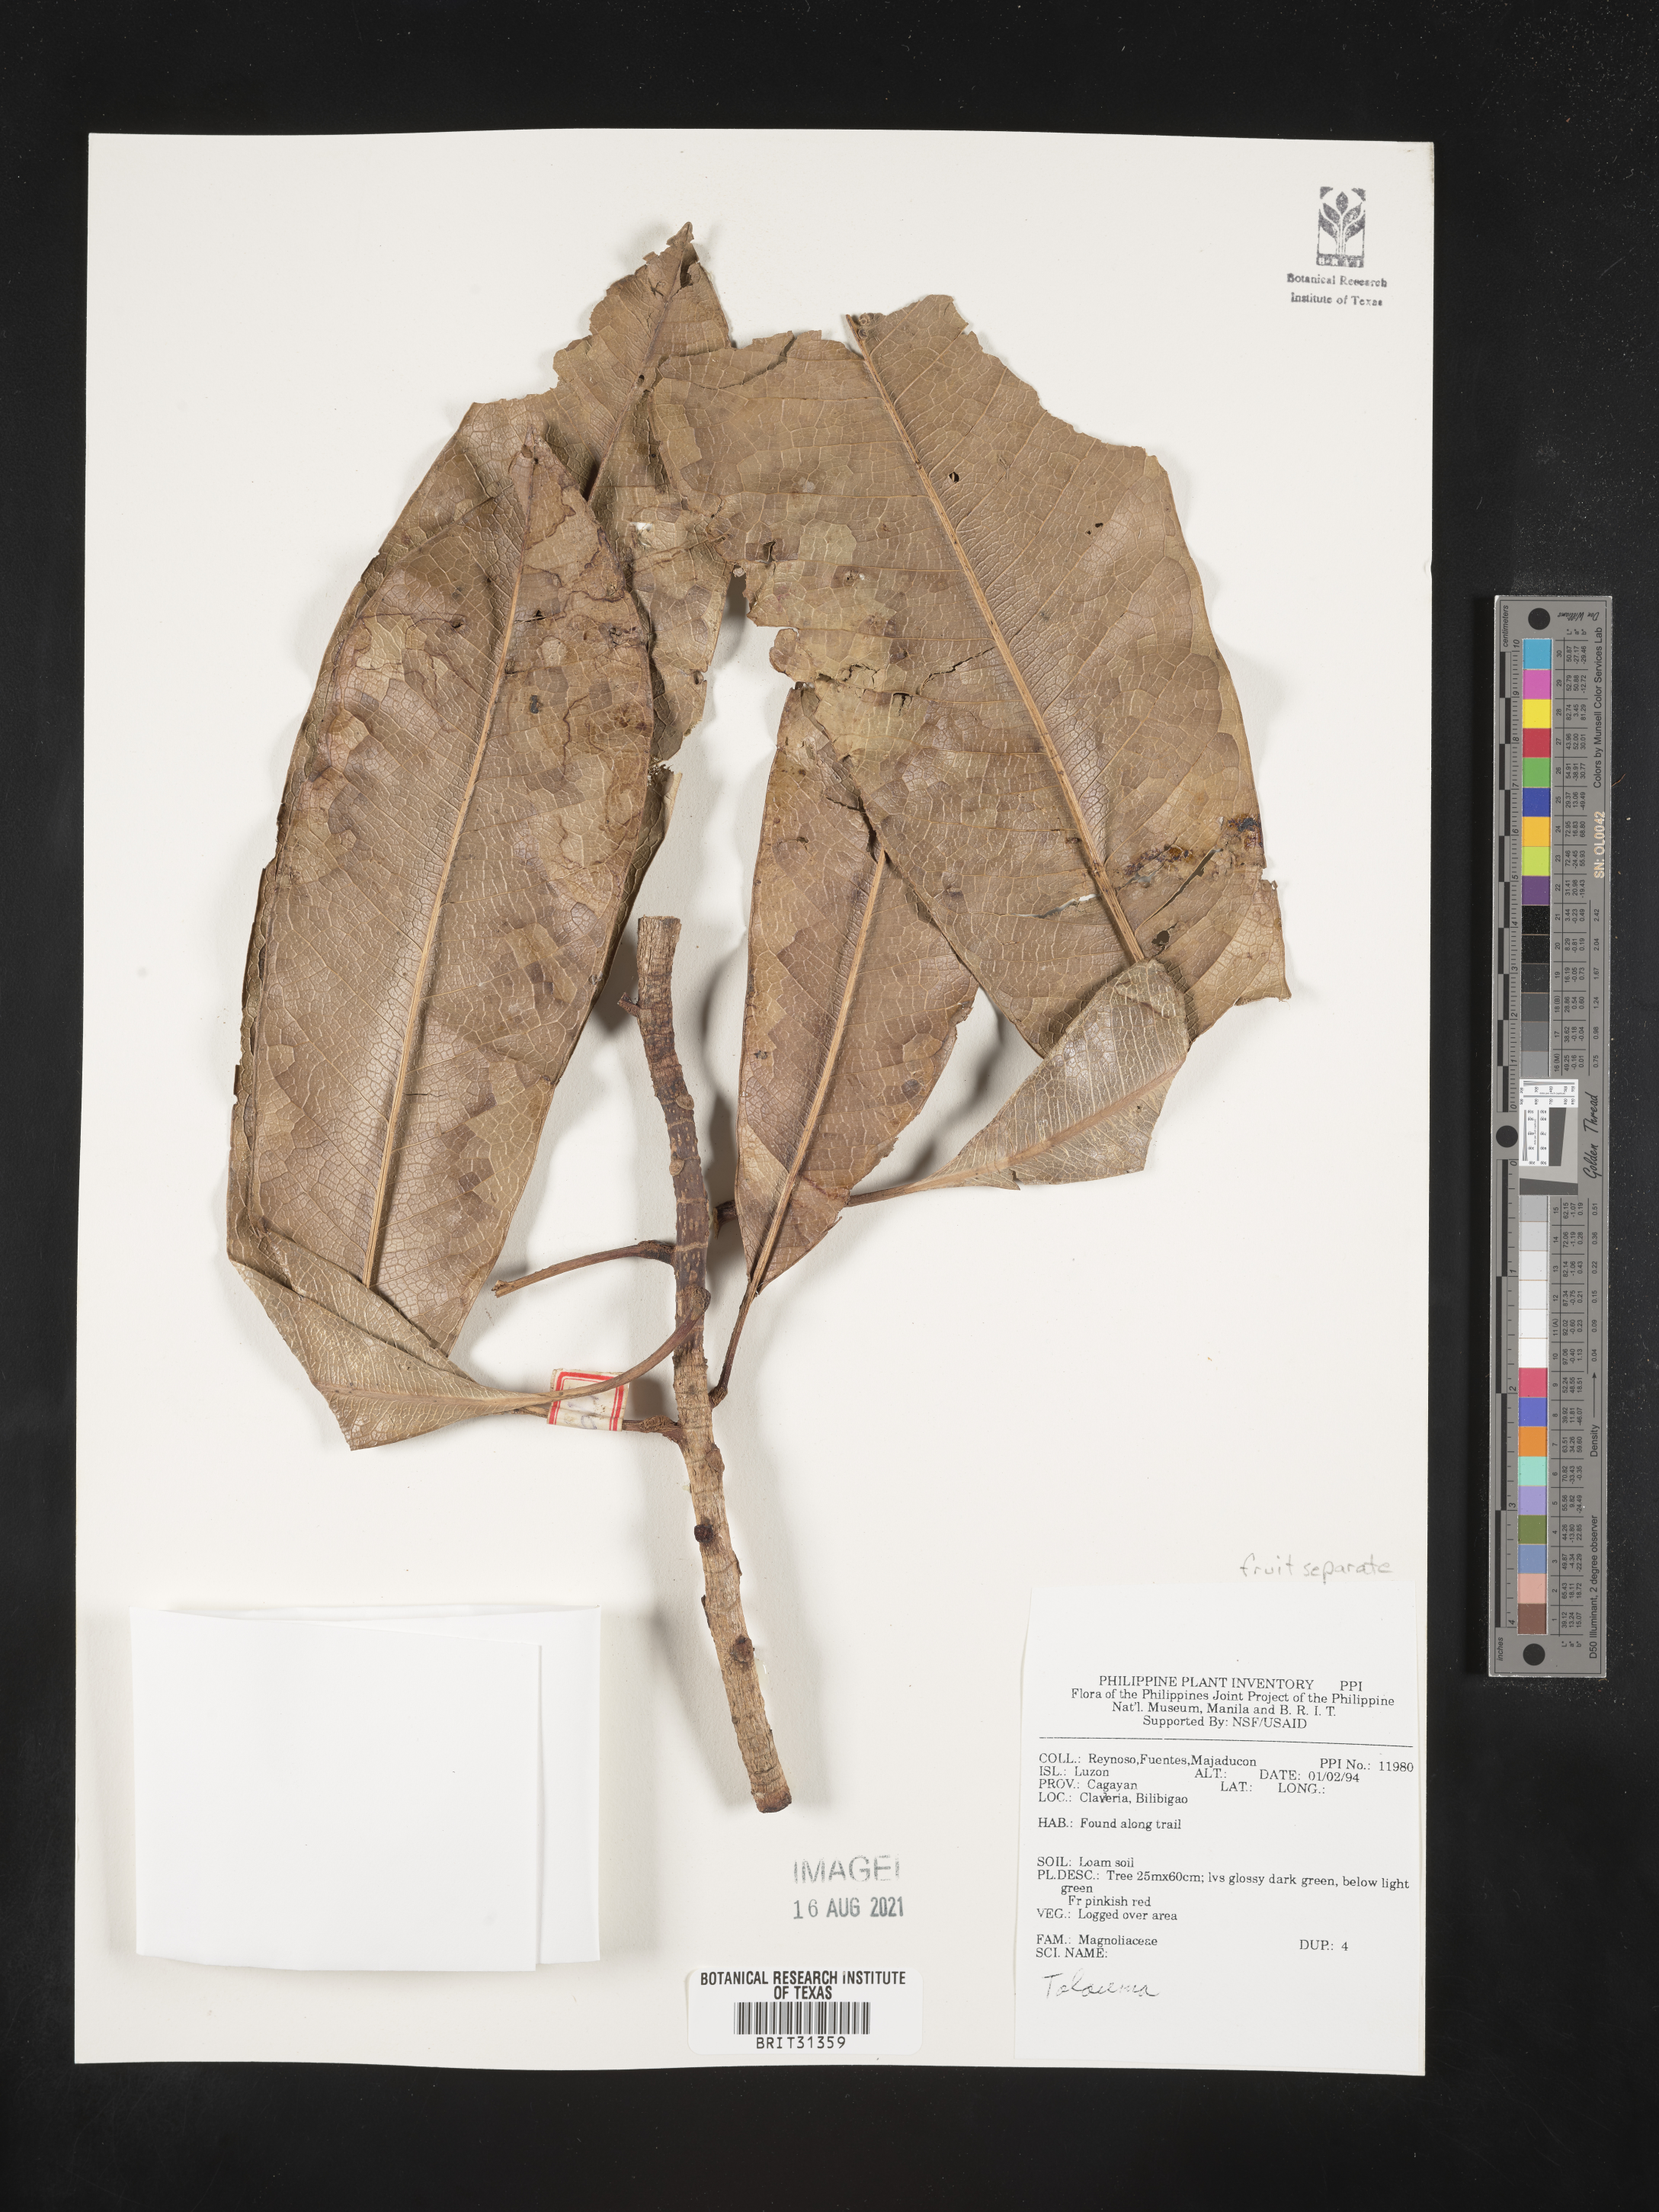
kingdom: Plantae
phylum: Tracheophyta
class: Magnoliopsida
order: Magnoliales
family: Magnoliaceae
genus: Magnolia
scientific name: Magnolia Talauma spec
